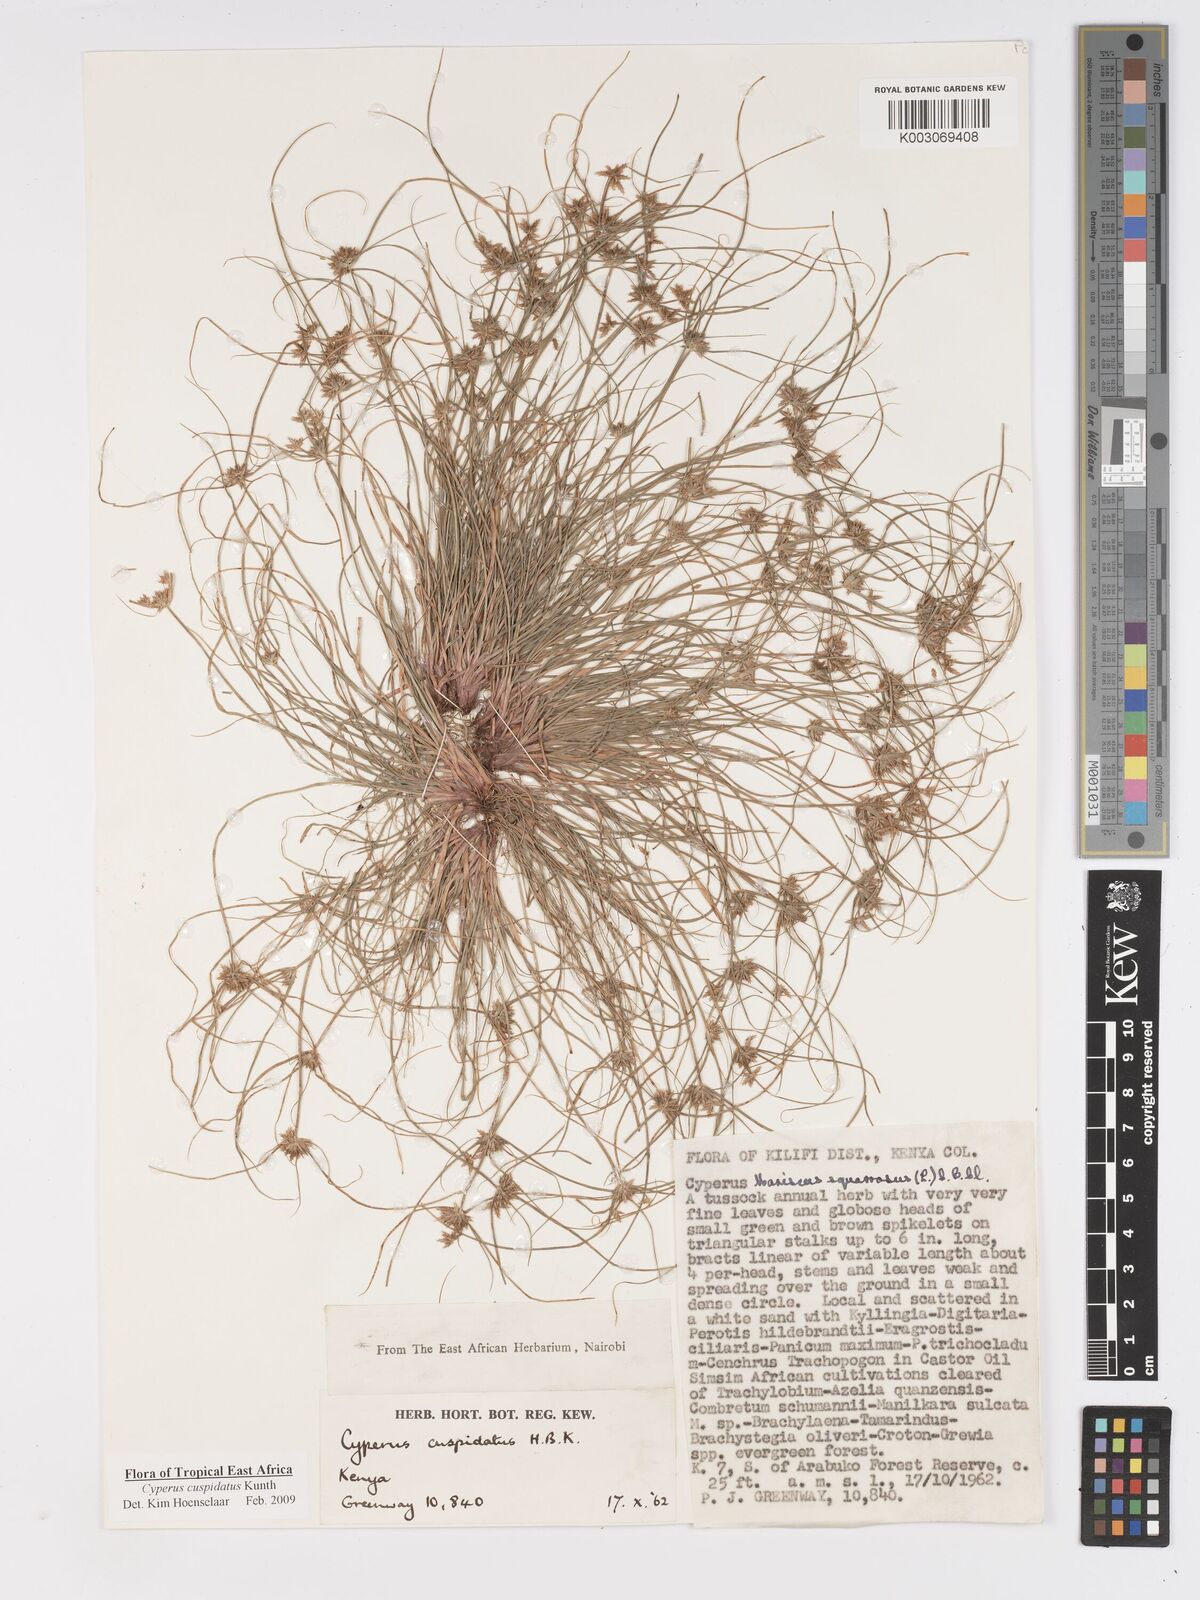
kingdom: Plantae
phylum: Tracheophyta
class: Liliopsida
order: Poales
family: Cyperaceae
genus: Cyperus
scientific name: Cyperus cuspidatus
